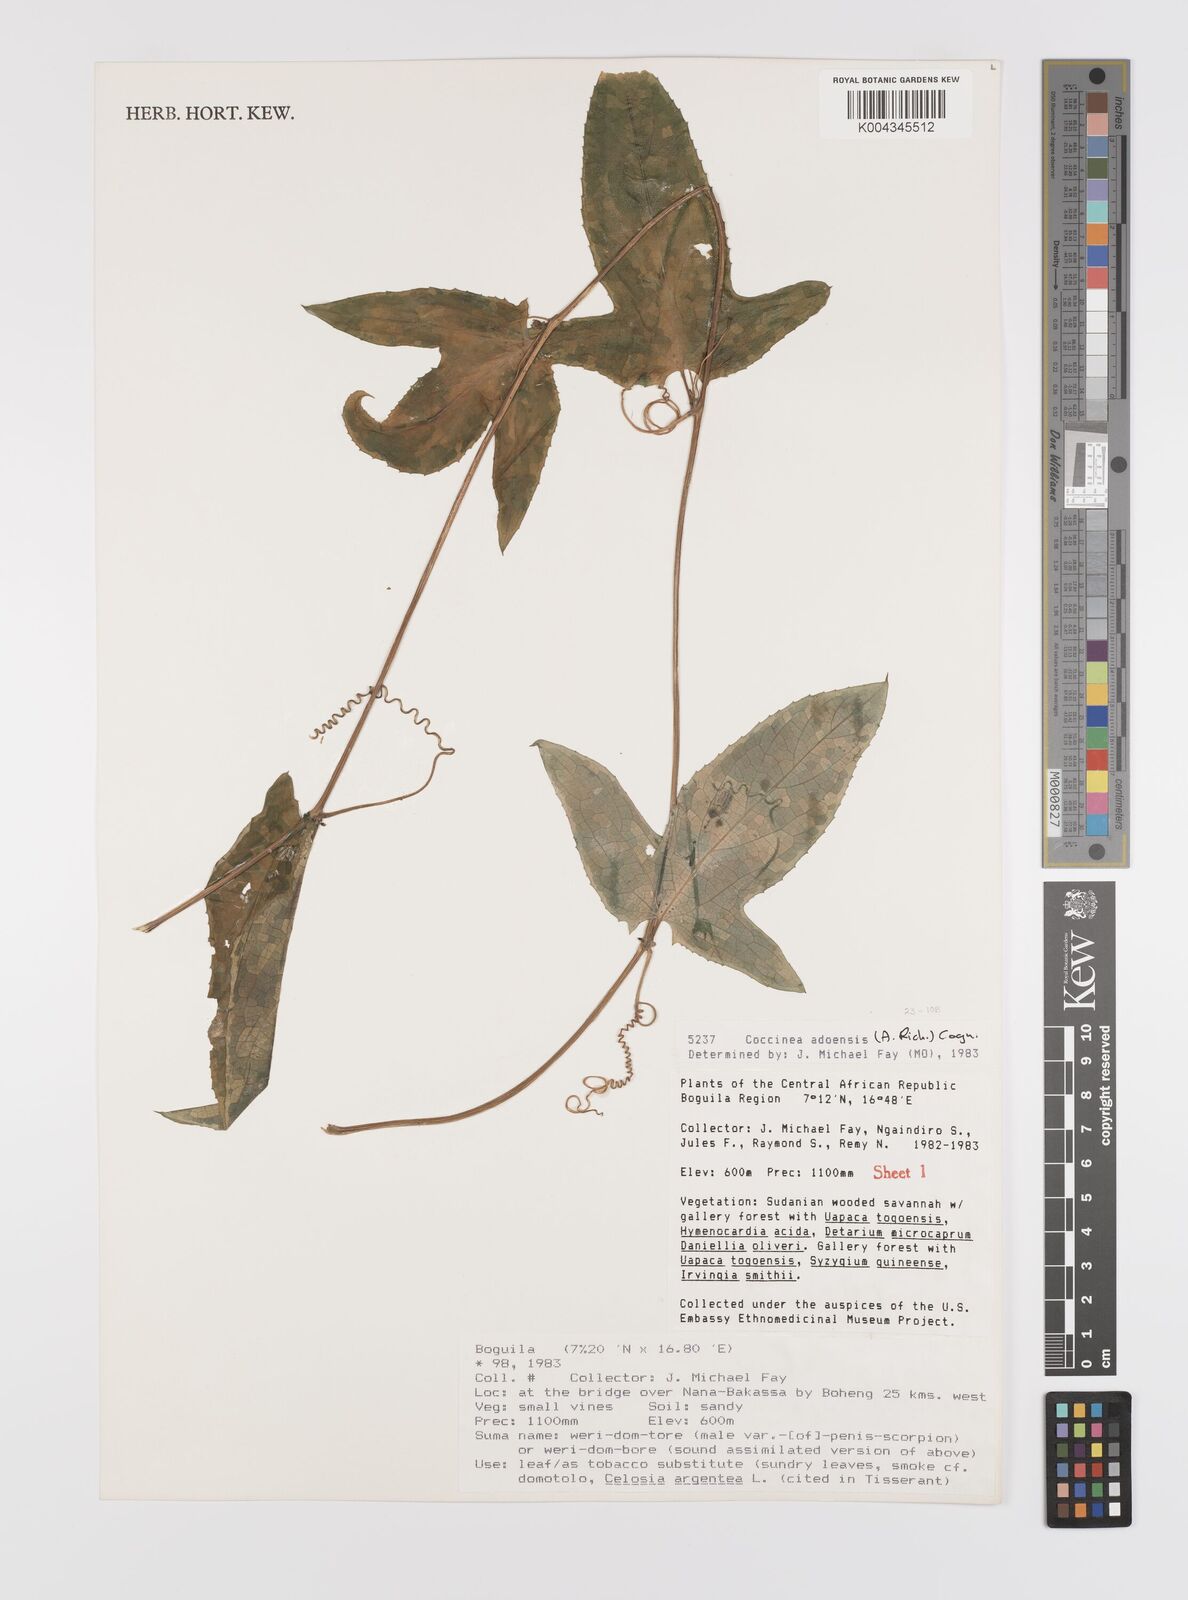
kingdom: Plantae
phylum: Tracheophyta
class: Magnoliopsida
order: Cucurbitales
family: Cucurbitaceae
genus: Coccinia
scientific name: Coccinia adoensis
